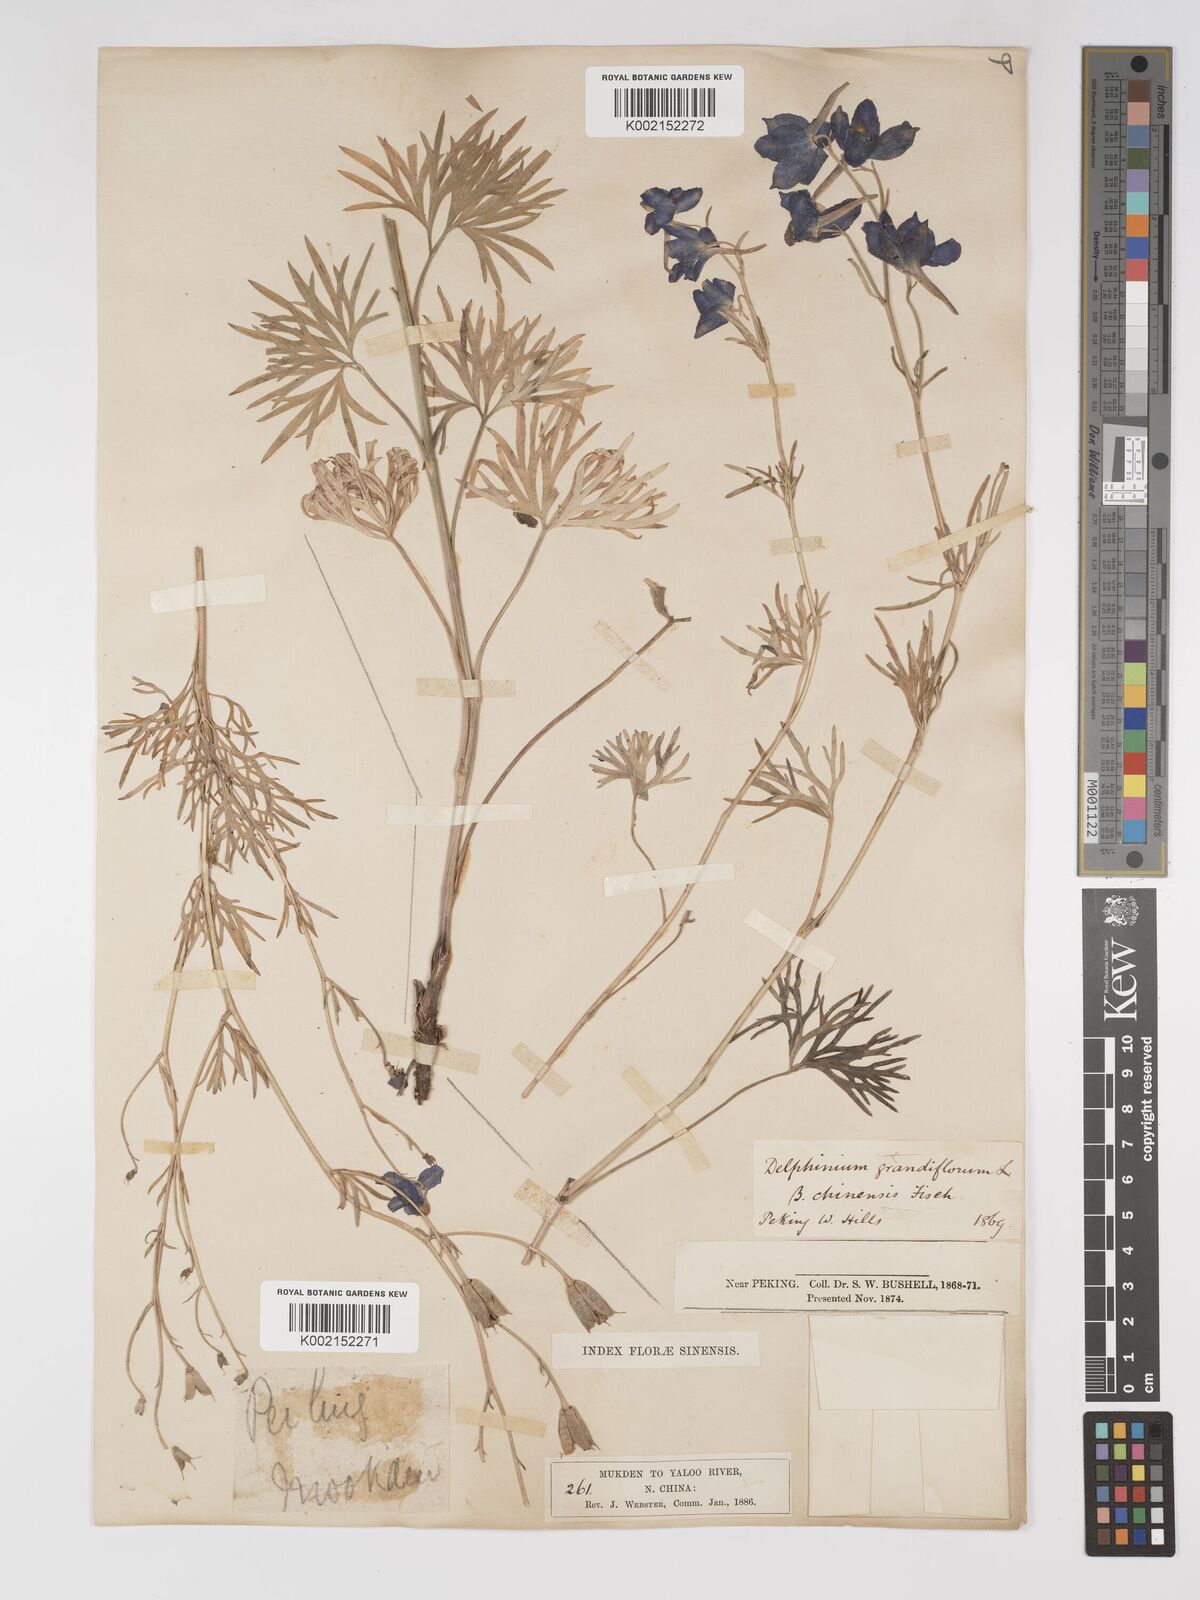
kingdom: Plantae
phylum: Tracheophyta
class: Magnoliopsida
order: Ranunculales
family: Ranunculaceae
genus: Delphinium
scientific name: Delphinium grandiflorum
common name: Siberian larkspur
